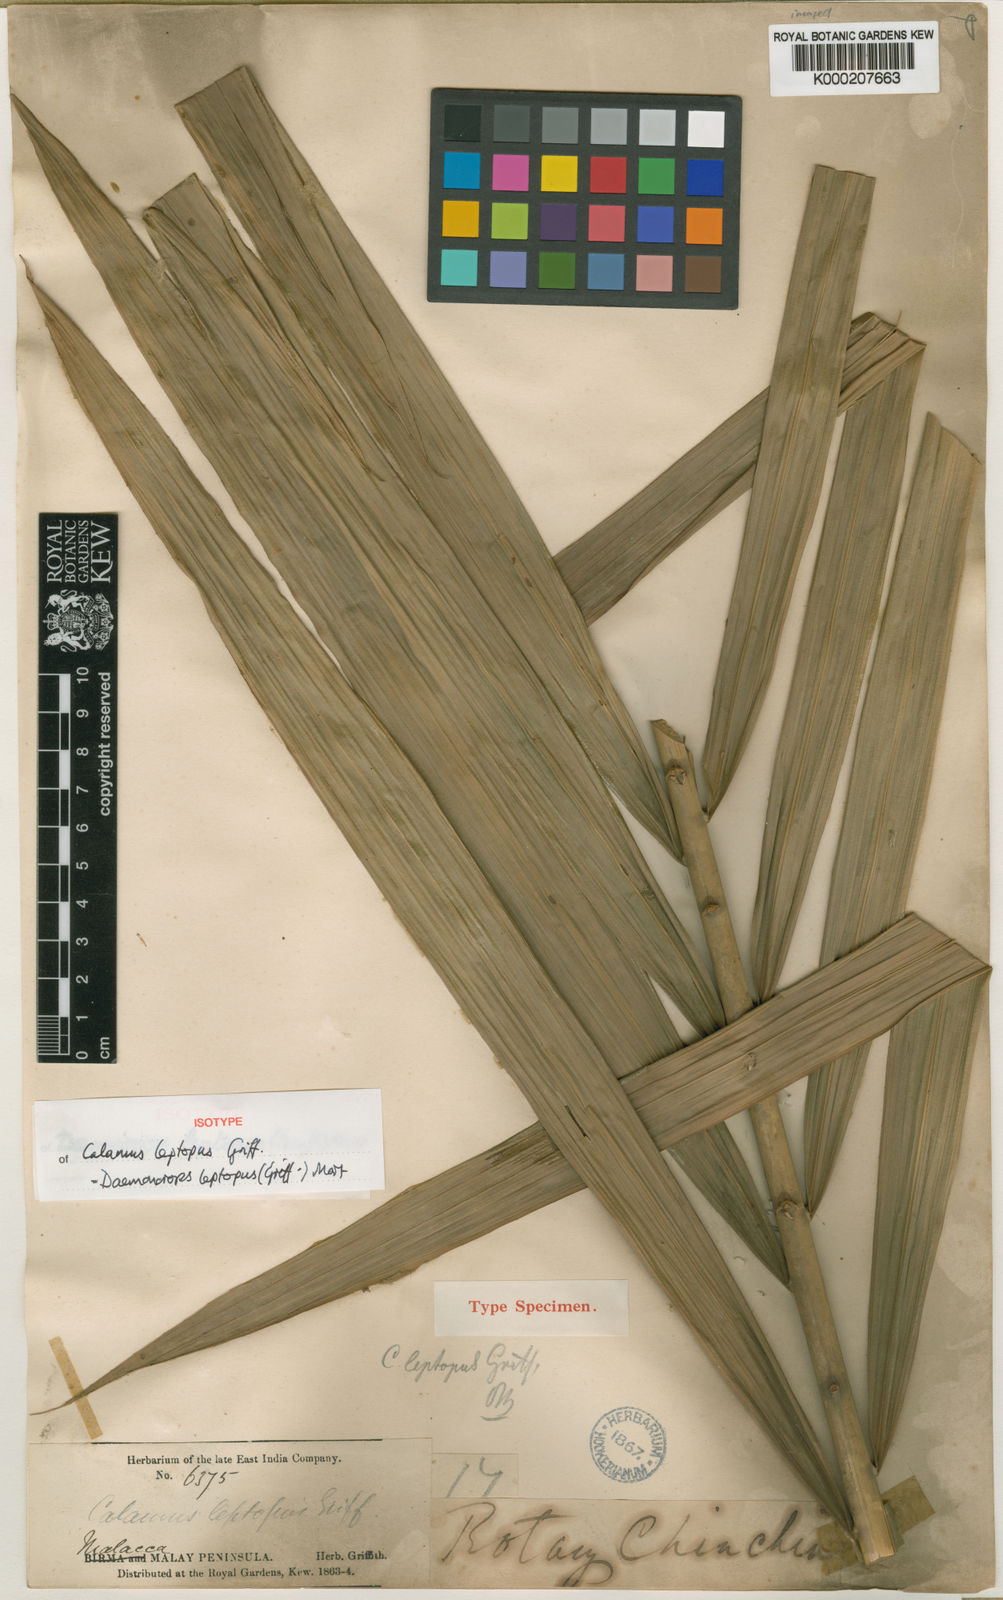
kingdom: Plantae
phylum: Tracheophyta
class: Liliopsida
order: Arecales
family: Arecaceae
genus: Calamus
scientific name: Calamus leptopus
